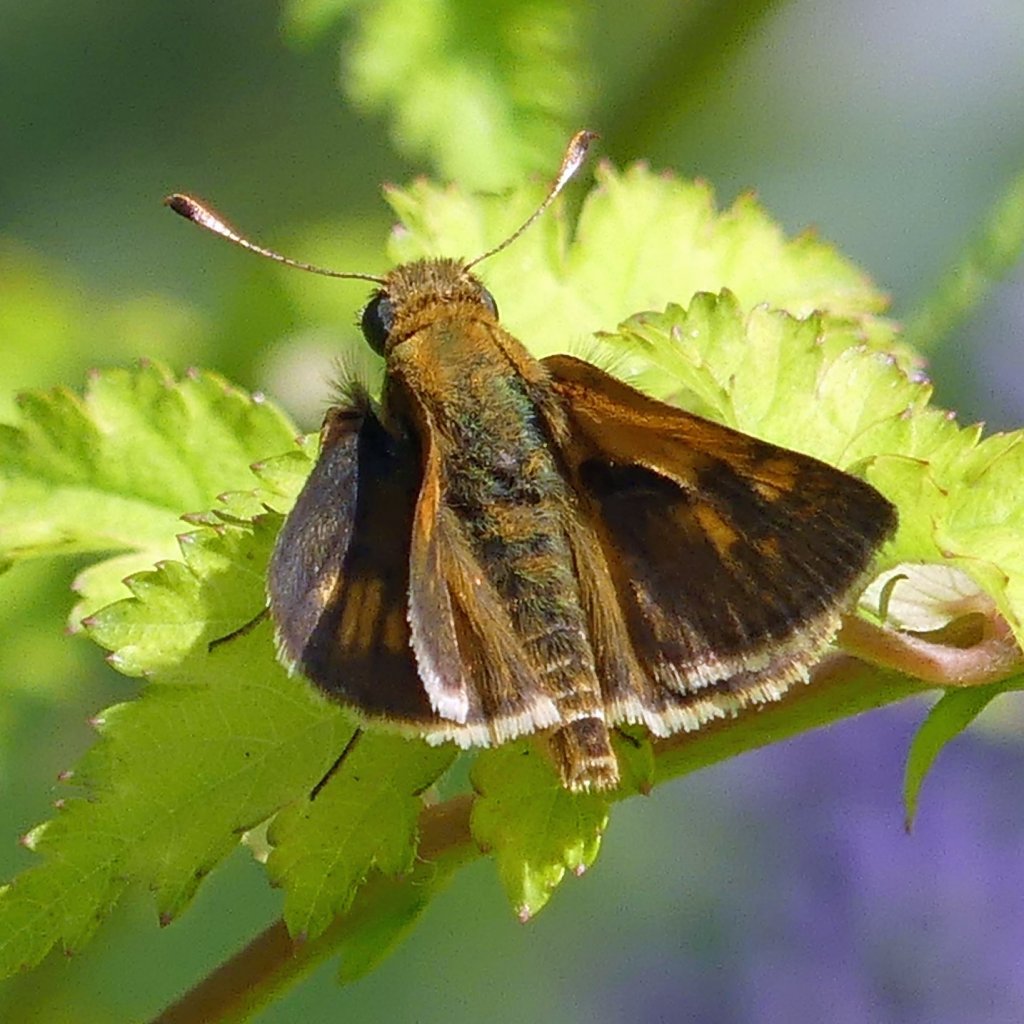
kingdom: Animalia
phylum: Arthropoda
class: Insecta
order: Lepidoptera
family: Hesperiidae
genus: Polites
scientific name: Polites coras
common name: Peck's Skipper
